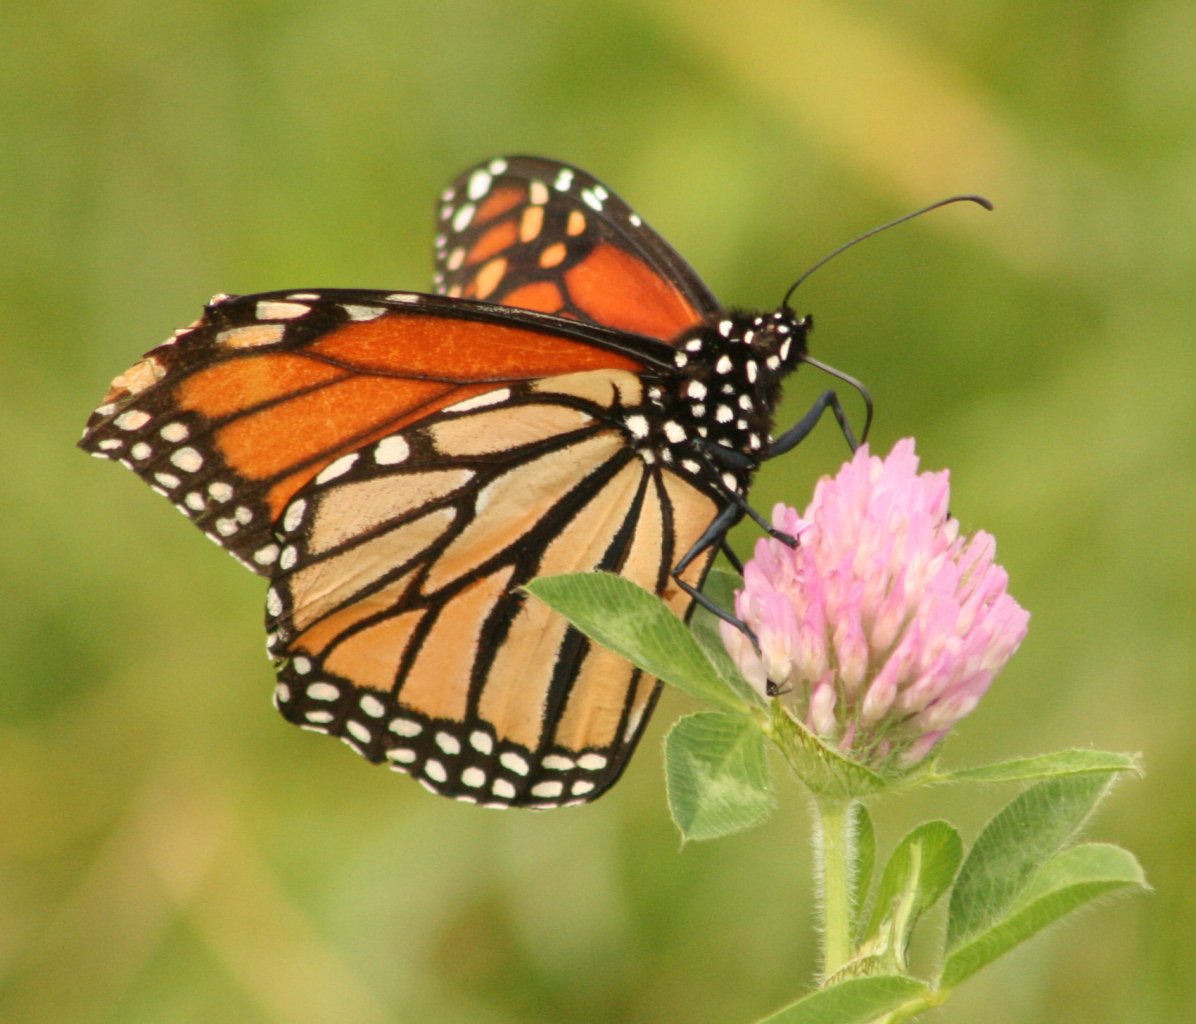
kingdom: Animalia
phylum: Arthropoda
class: Insecta
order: Lepidoptera
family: Nymphalidae
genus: Danaus
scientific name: Danaus plexippus
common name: Monarch
